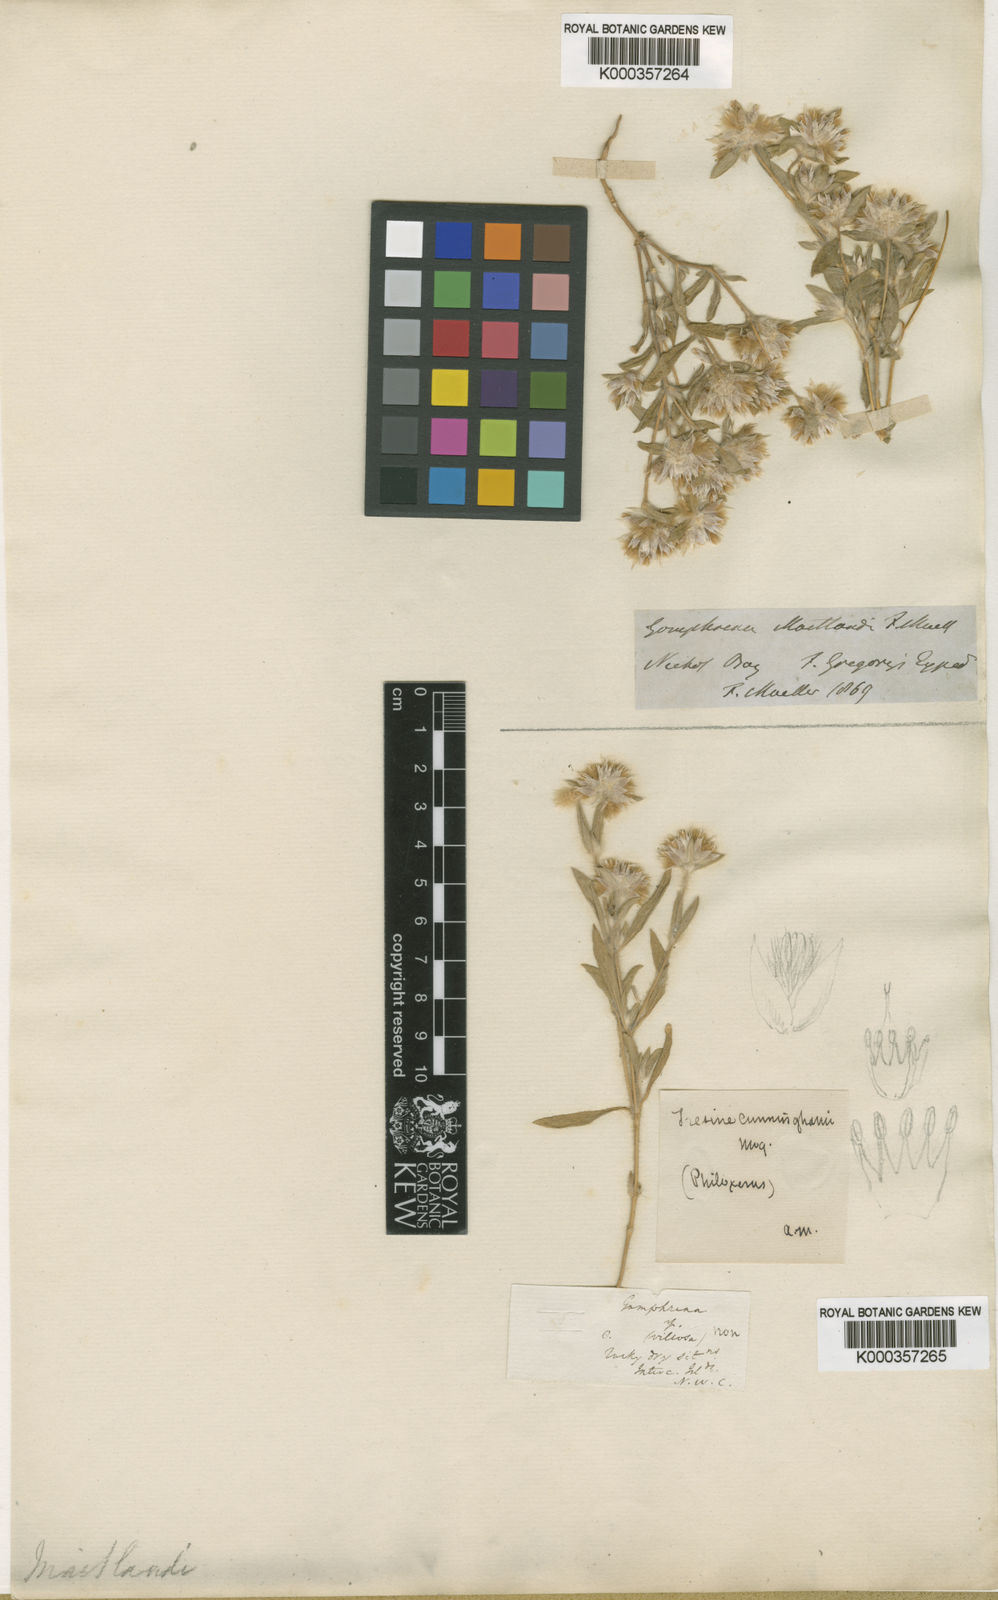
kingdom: Plantae
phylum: Tracheophyta
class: Magnoliopsida
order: Caryophyllales
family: Amaranthaceae
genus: Gomphrena
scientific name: Gomphrena cunninghamii
